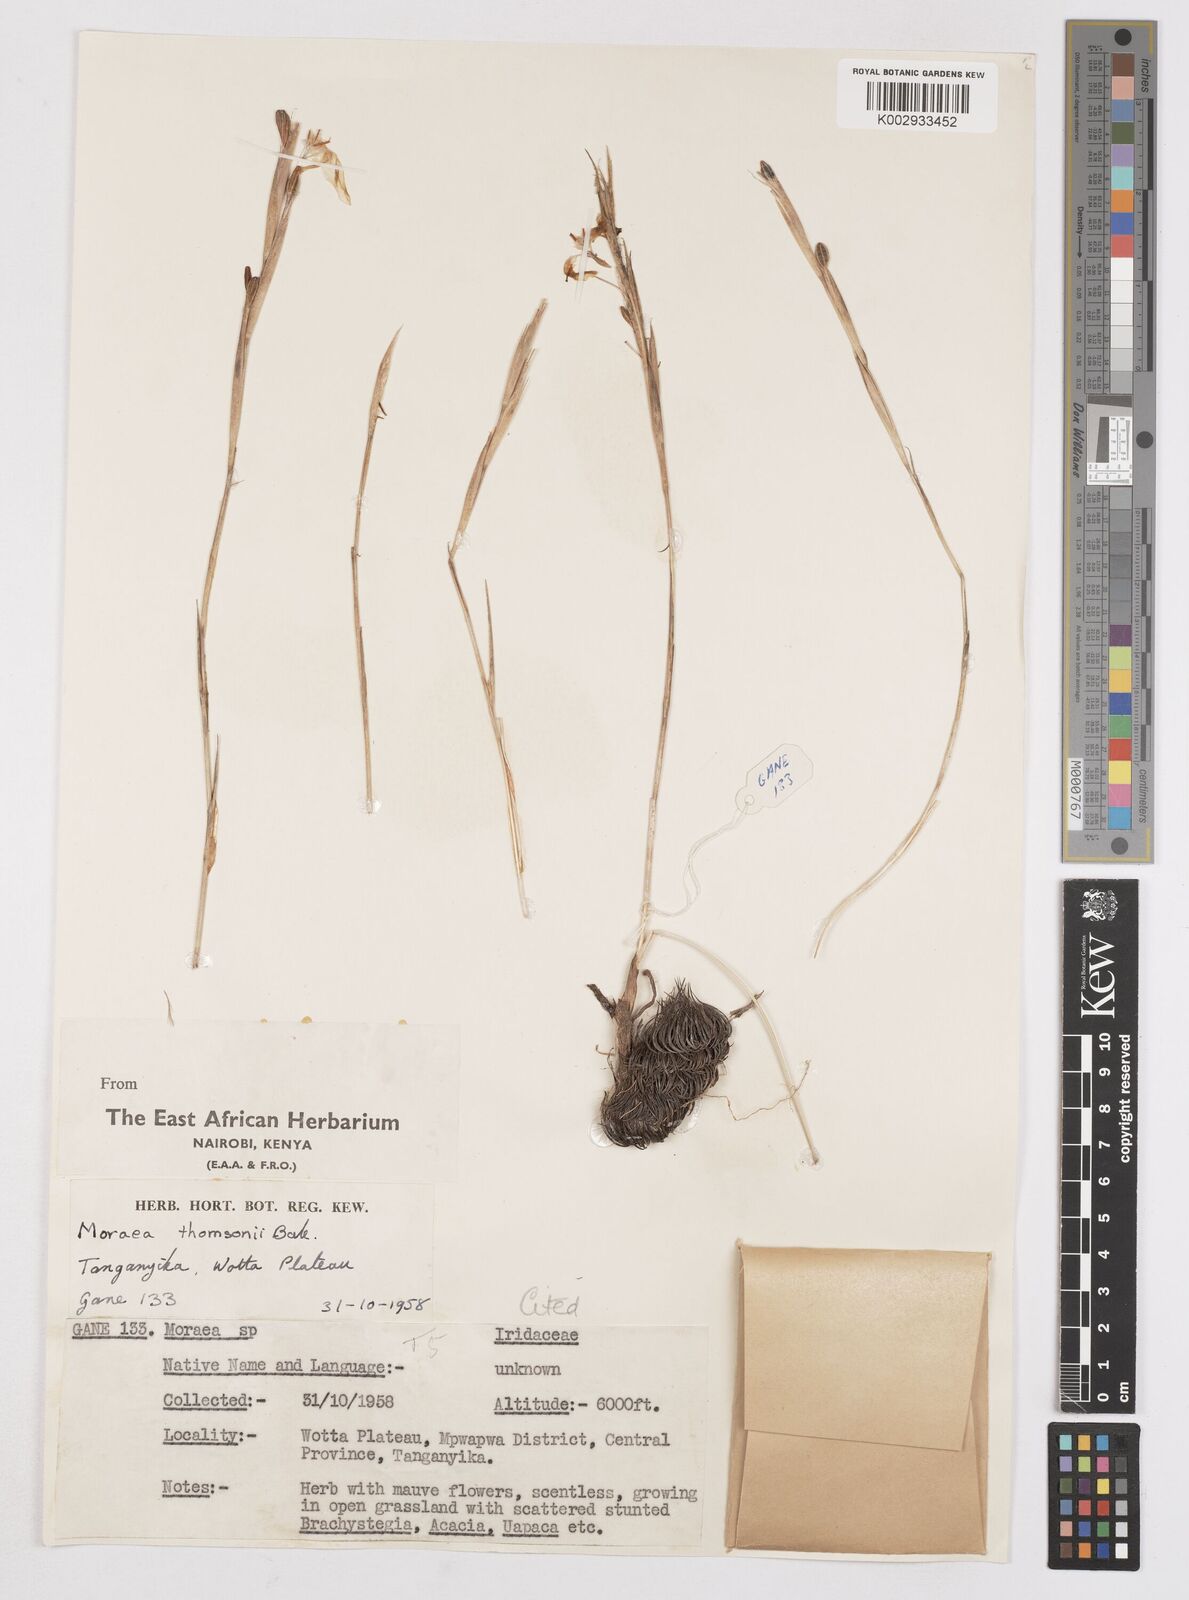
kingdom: Plantae
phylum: Tracheophyta
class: Liliopsida
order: Asparagales
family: Iridaceae
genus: Moraea
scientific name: Moraea stricta
